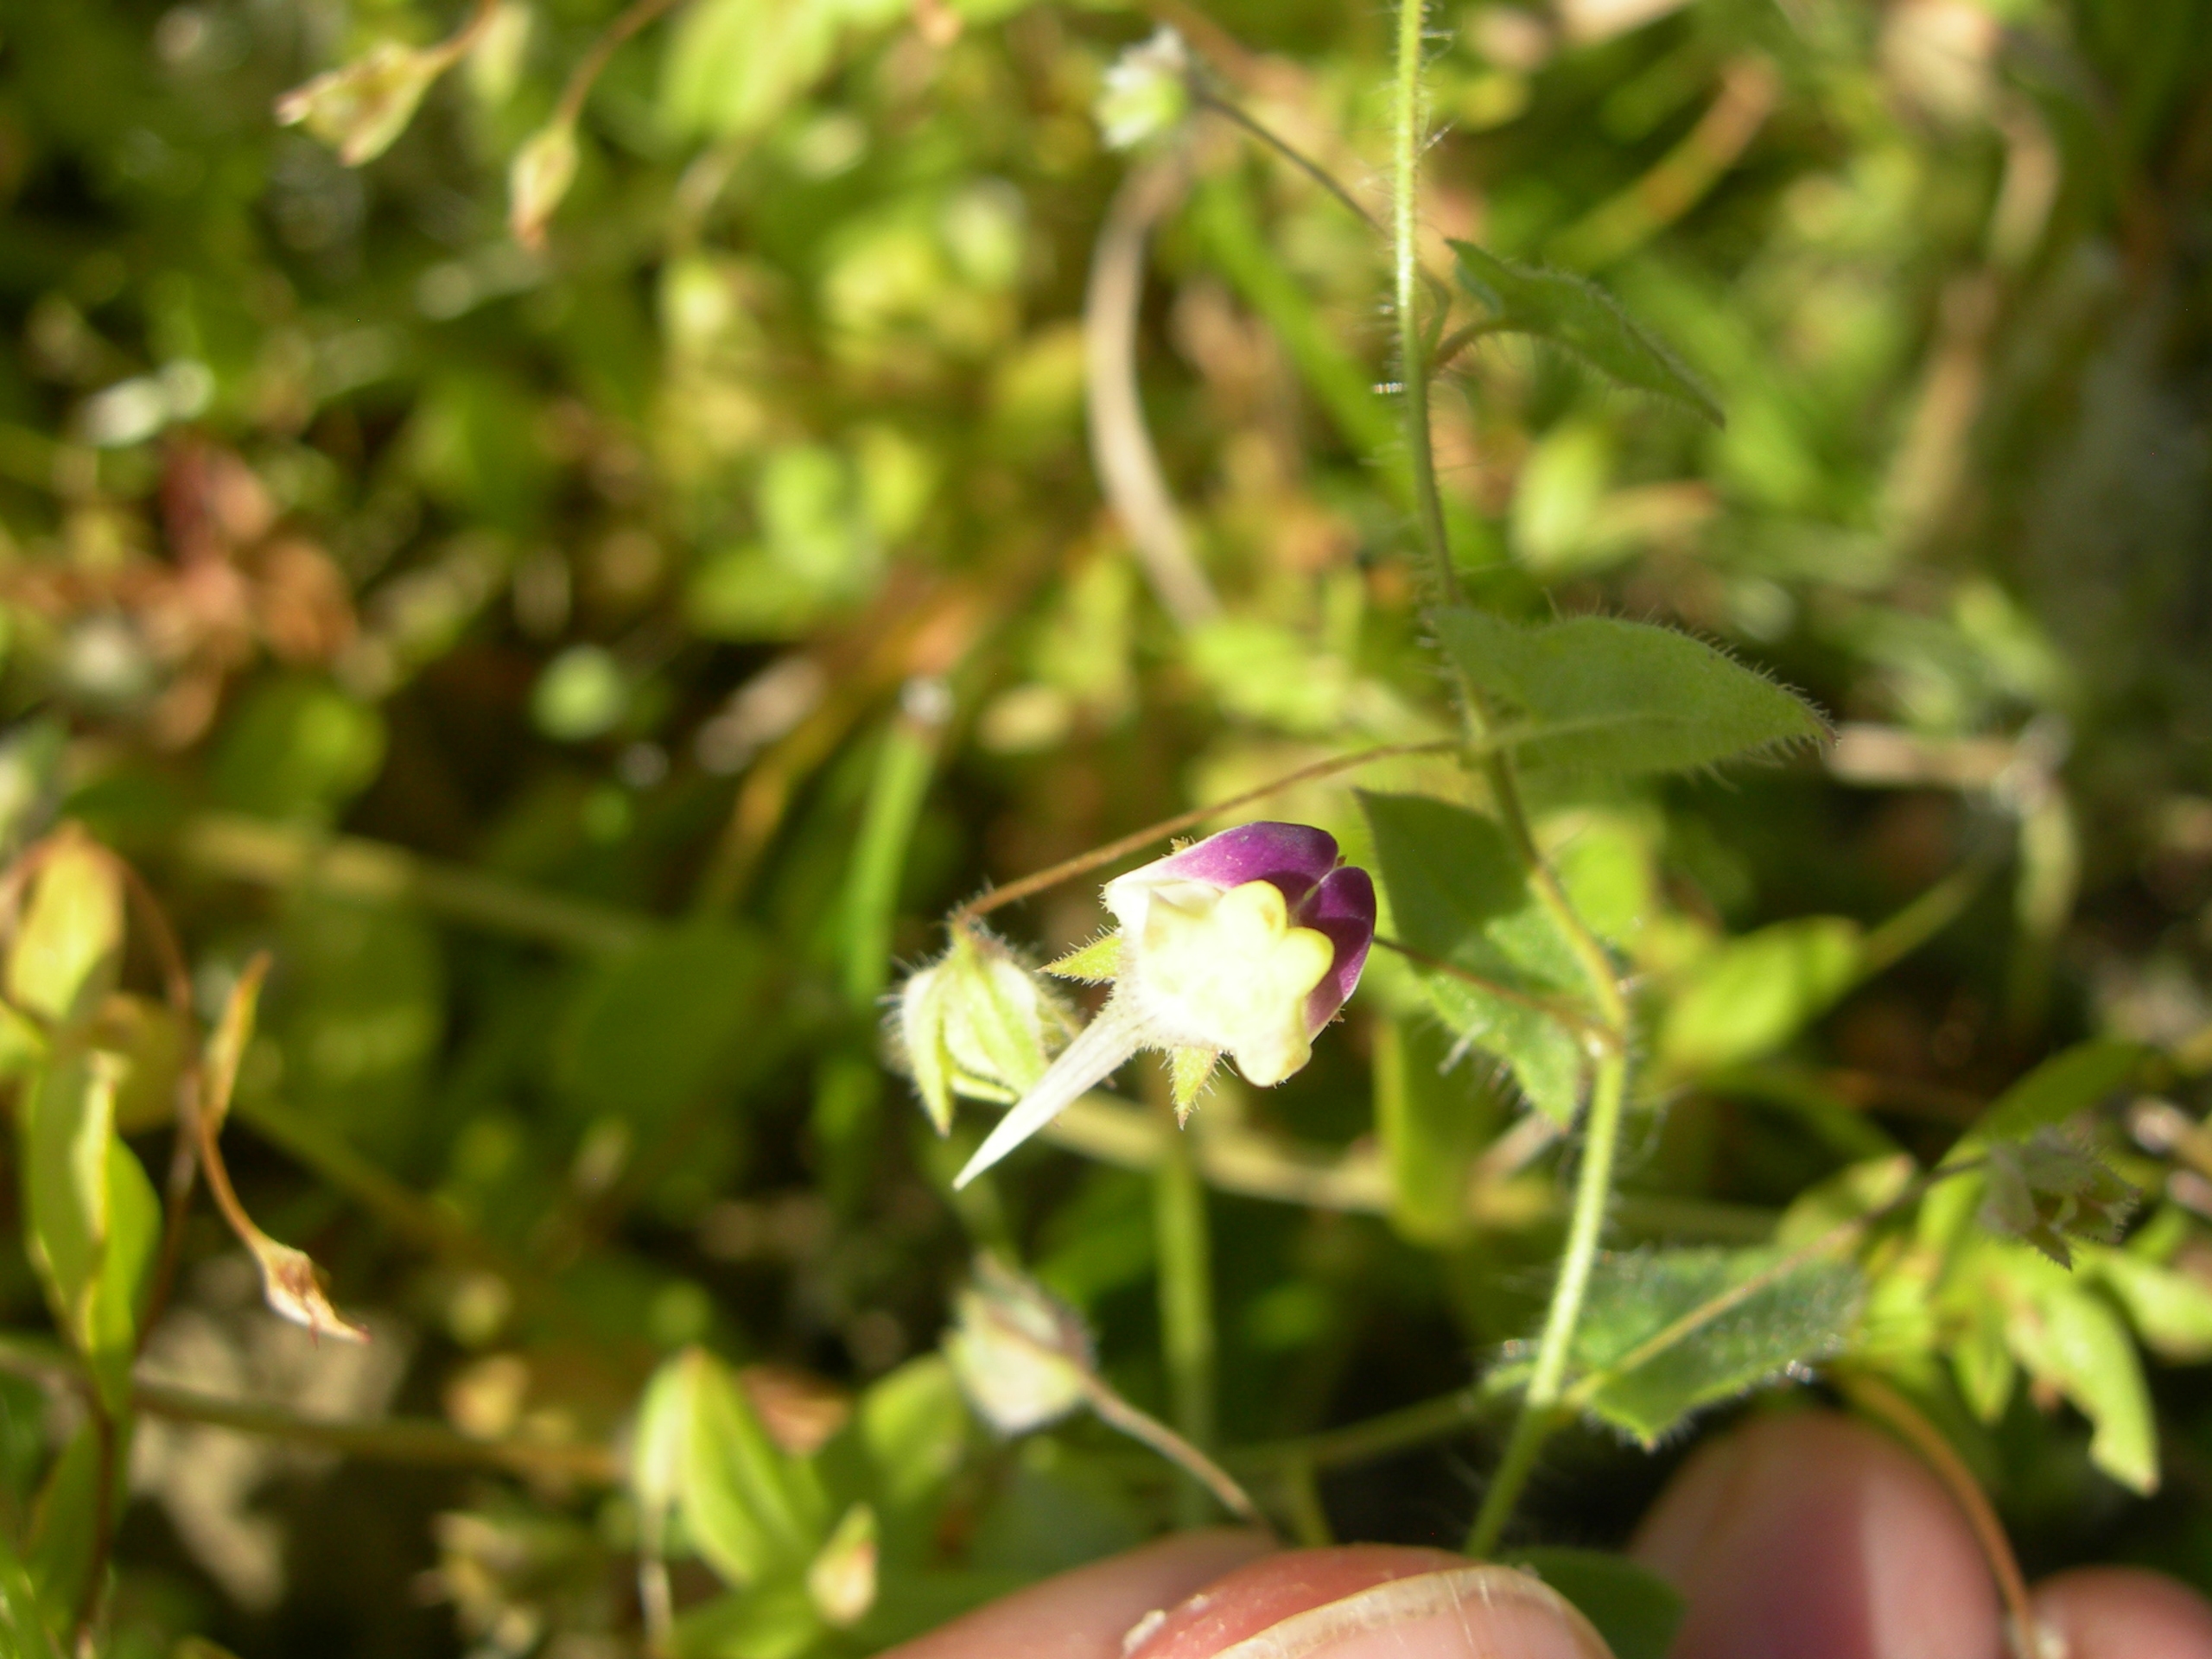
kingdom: Plantae
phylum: Tracheophyta
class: Magnoliopsida
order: Lamiales
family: Plantaginaceae
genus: Kickxia
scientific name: Kickxia elatine
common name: Spydbladet torskemund
